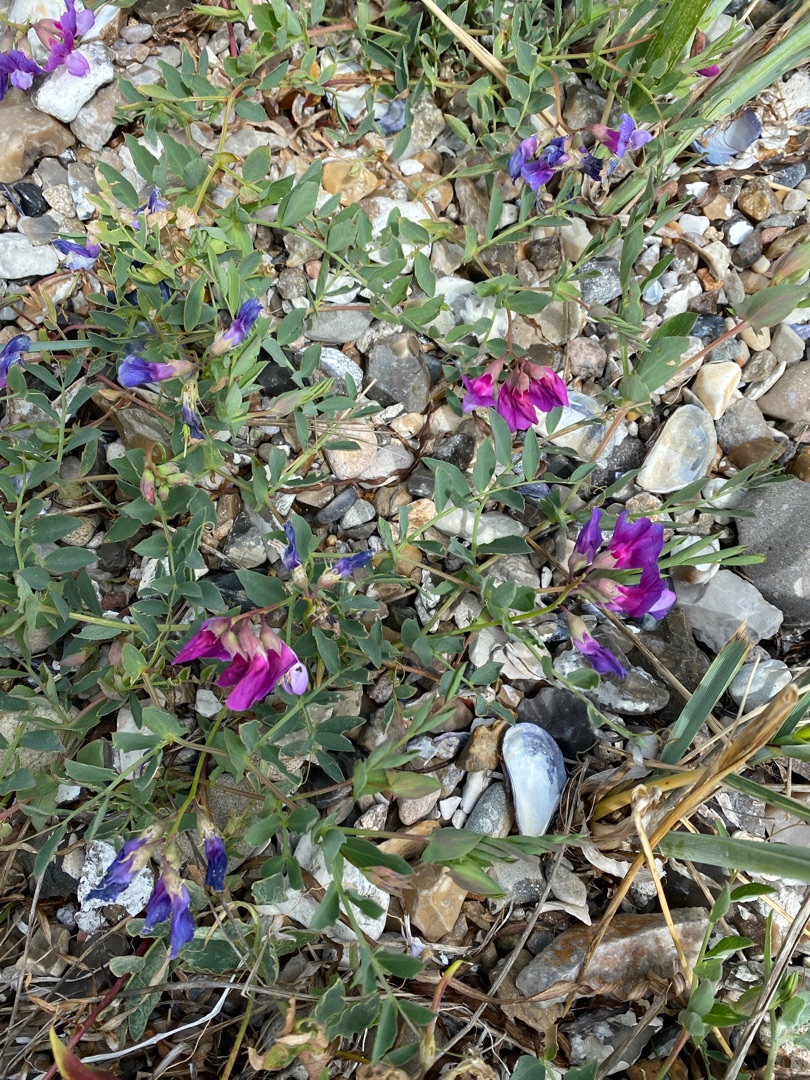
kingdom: Plantae
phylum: Tracheophyta
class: Magnoliopsida
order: Fabales
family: Fabaceae
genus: Lathyrus
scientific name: Lathyrus japonicus
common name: Strand-fladbælg
